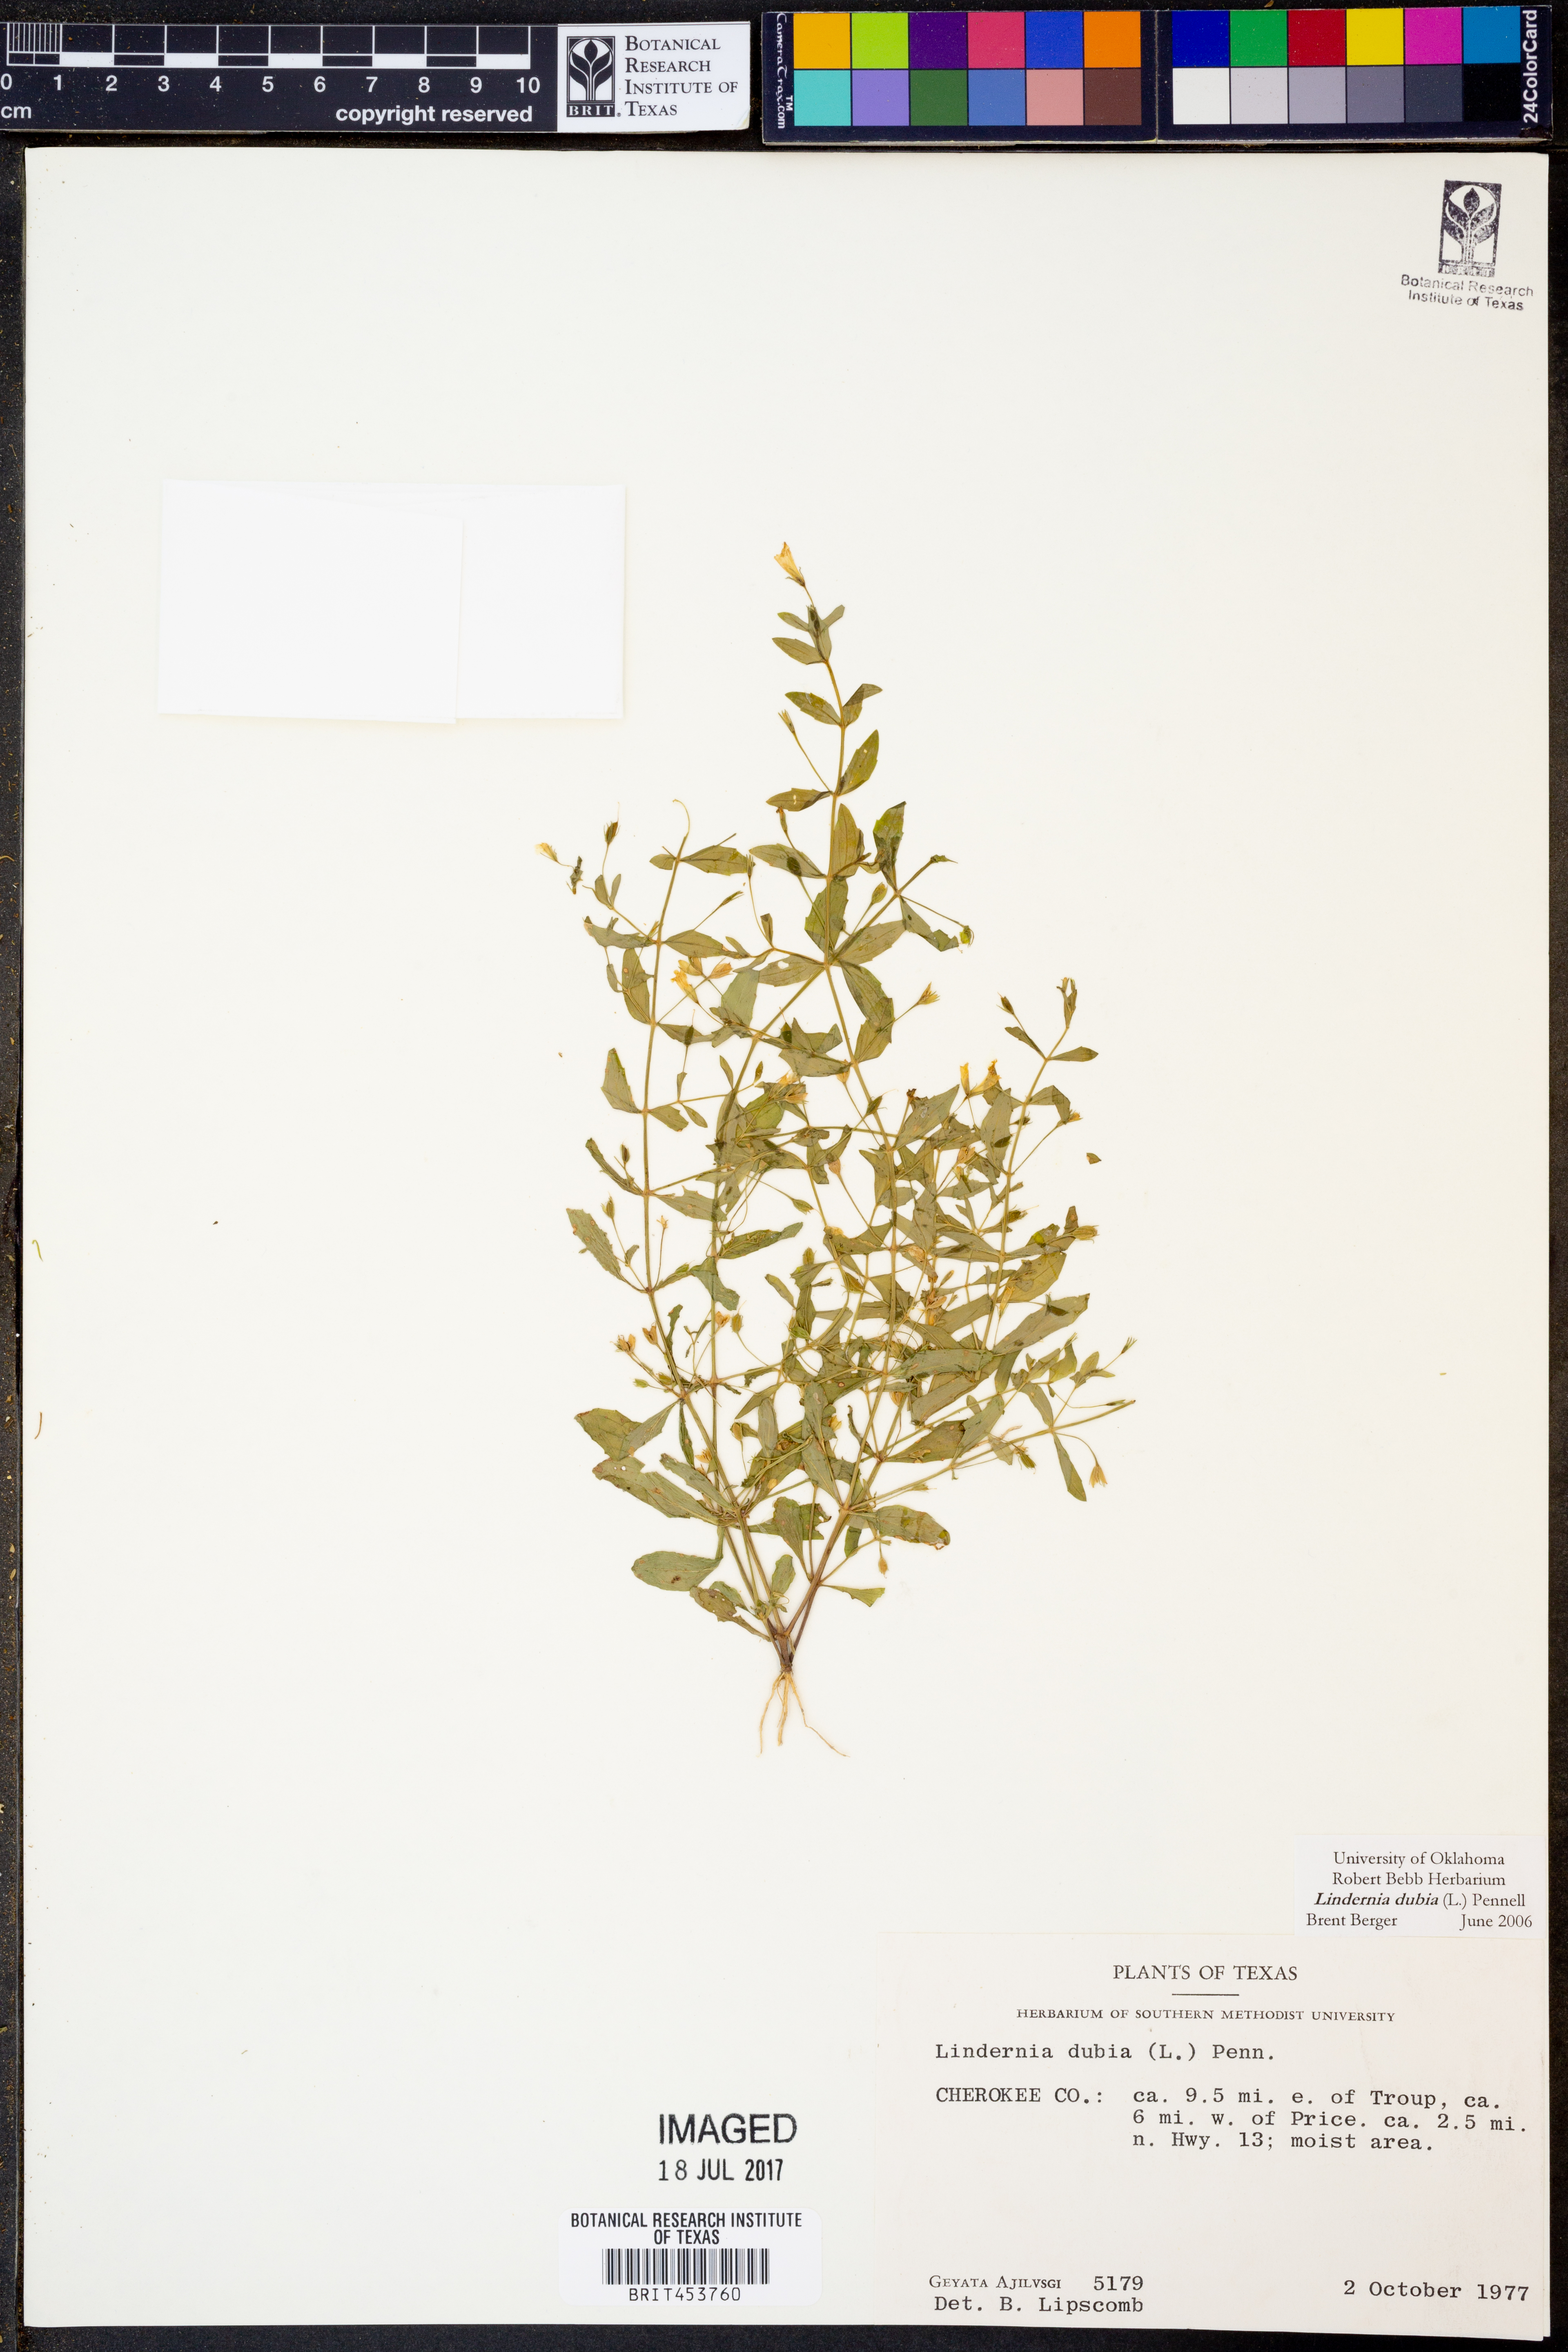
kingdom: Plantae
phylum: Tracheophyta
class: Magnoliopsida
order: Lamiales
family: Linderniaceae
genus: Lindernia
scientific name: Lindernia dubia
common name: Annual false pimpernel
